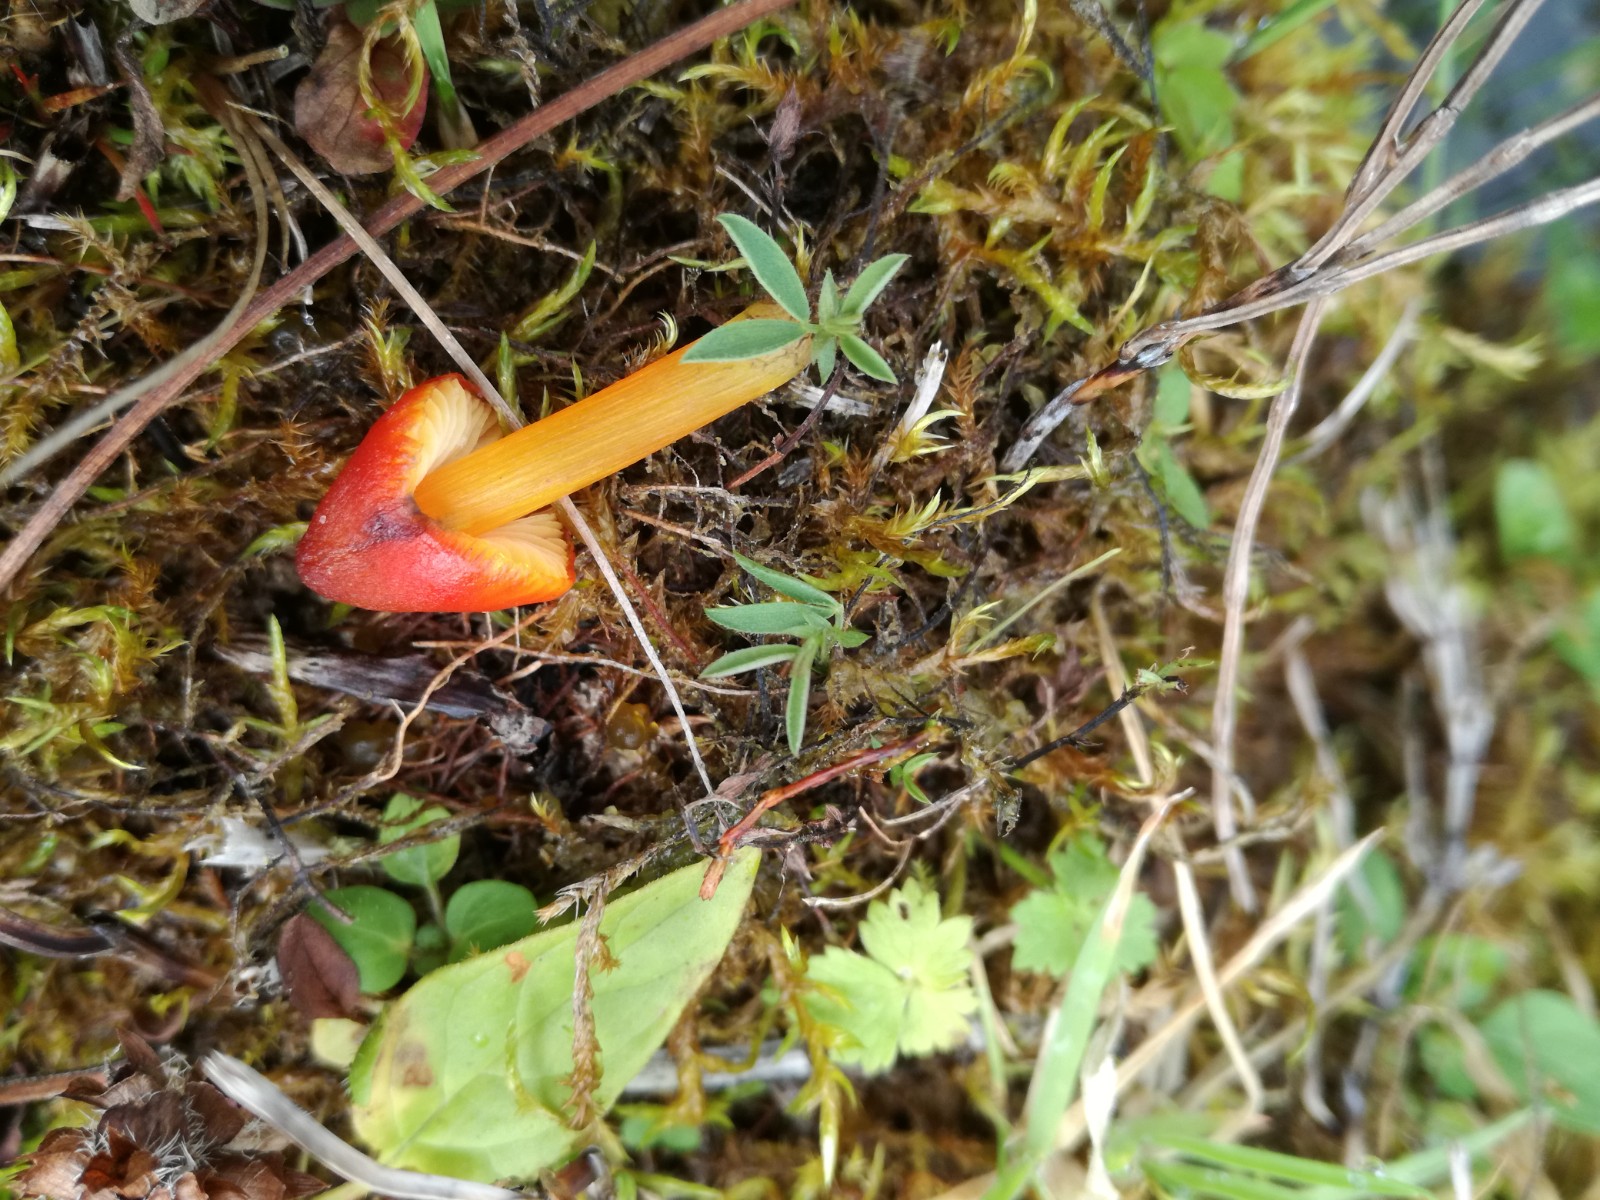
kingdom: Fungi
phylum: Basidiomycota
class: Agaricomycetes
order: Agaricales
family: Hygrophoraceae
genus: Hygrocybe
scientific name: Hygrocybe conica
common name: kegle-vokshat
